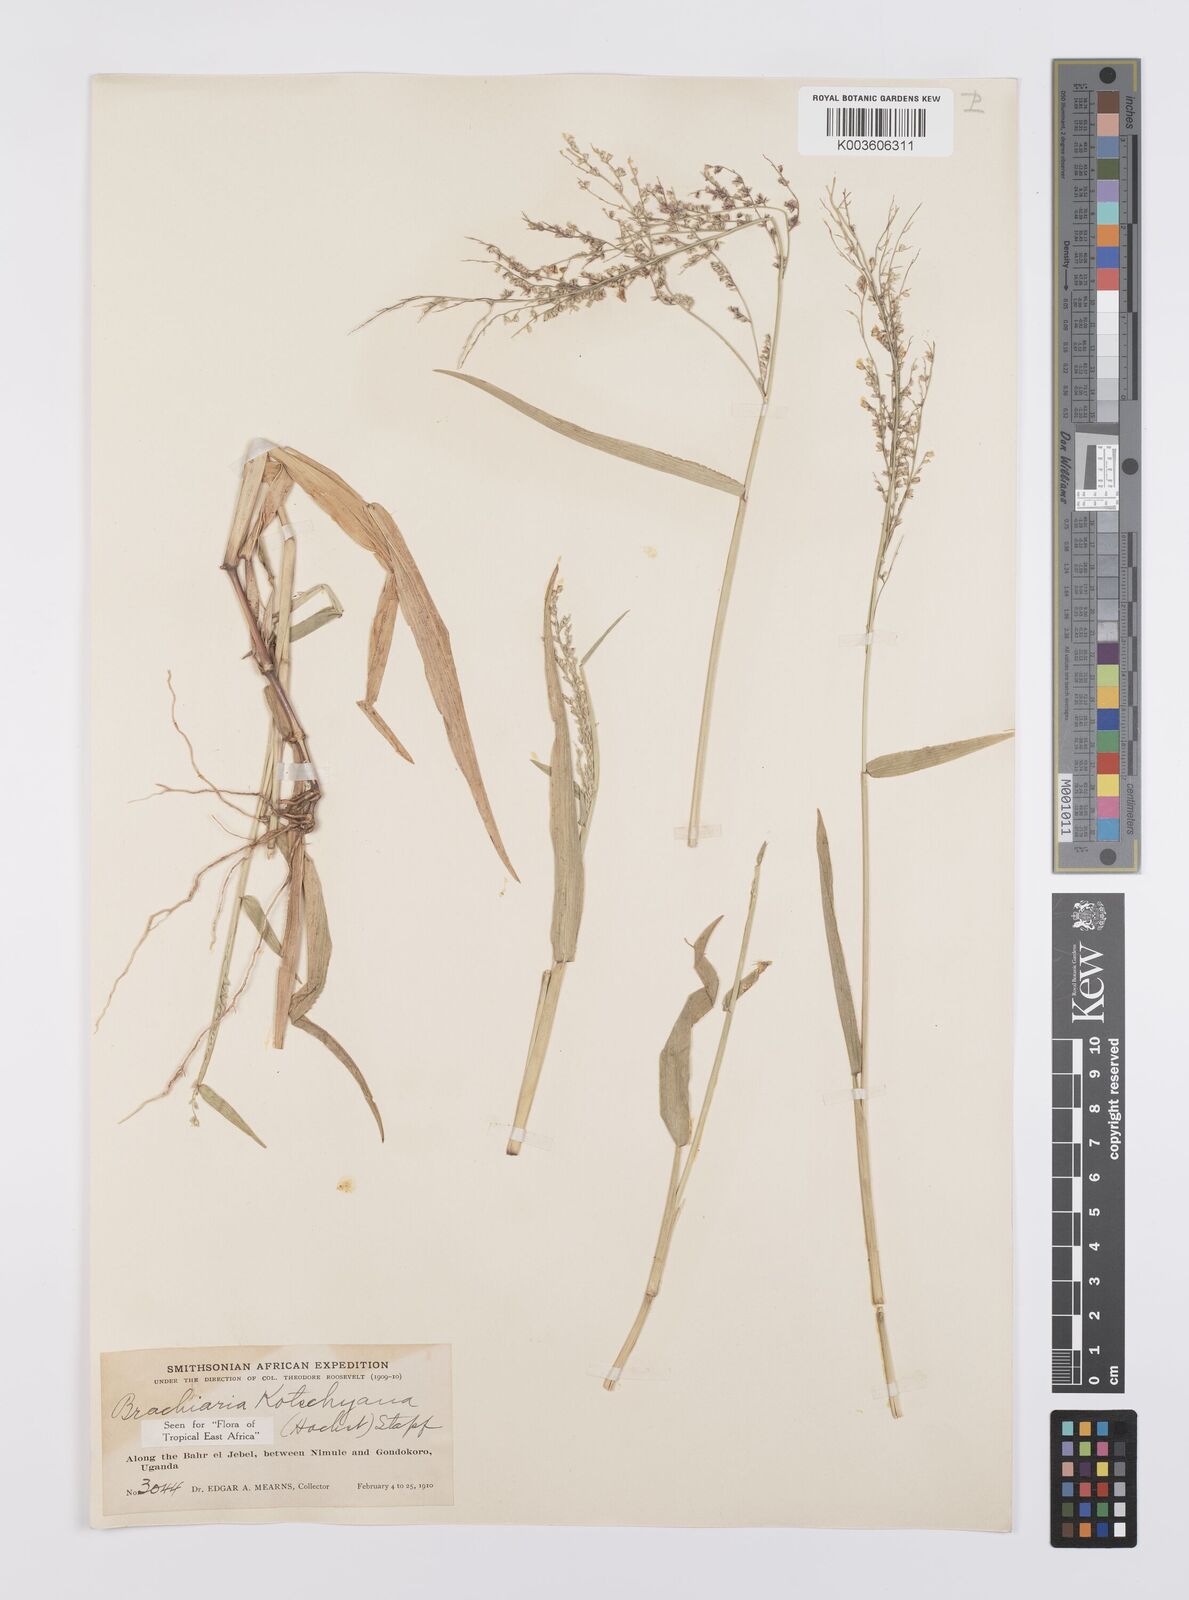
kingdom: Plantae
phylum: Tracheophyta
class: Liliopsida
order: Poales
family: Poaceae
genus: Urochloa
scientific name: Urochloa comata
